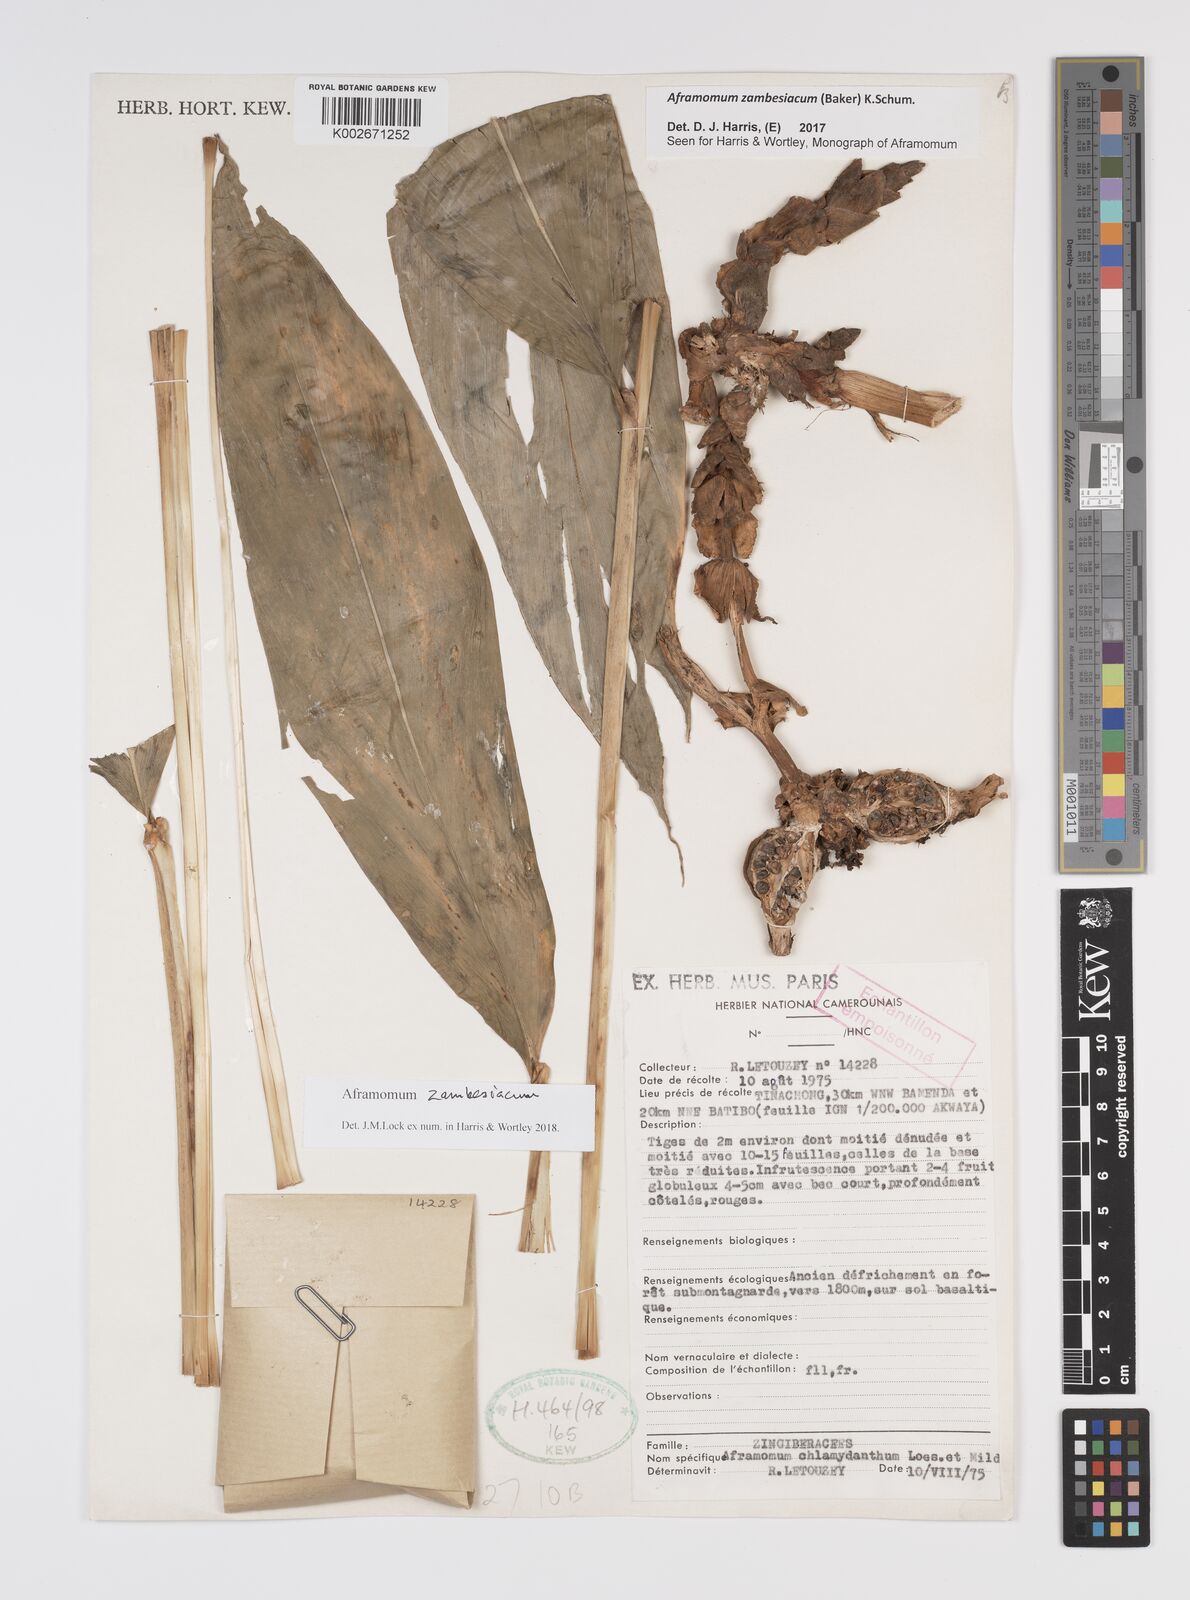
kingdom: Plantae
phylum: Tracheophyta
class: Liliopsida
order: Zingiberales
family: Zingiberaceae
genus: Aframomum
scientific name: Aframomum zambesiacum
